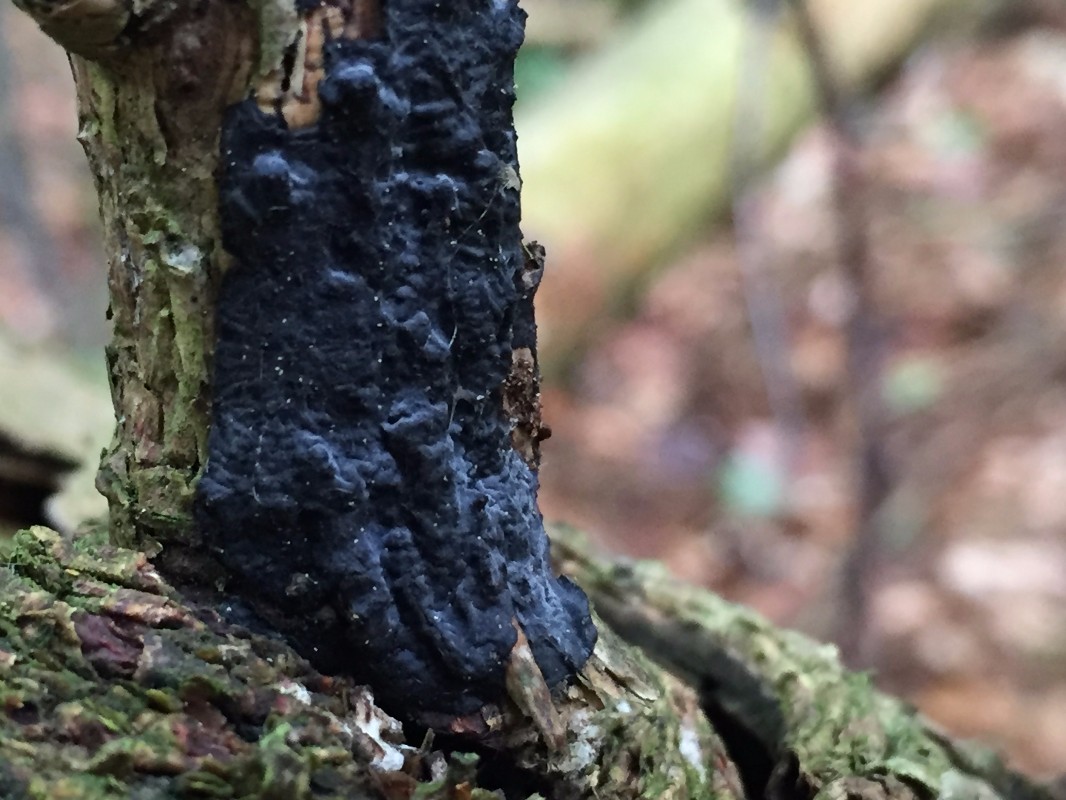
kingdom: Fungi
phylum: Basidiomycota
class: Agaricomycetes
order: Auriculariales
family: Auriculariaceae
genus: Exidia
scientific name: Exidia pithya
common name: gran-bævretop
